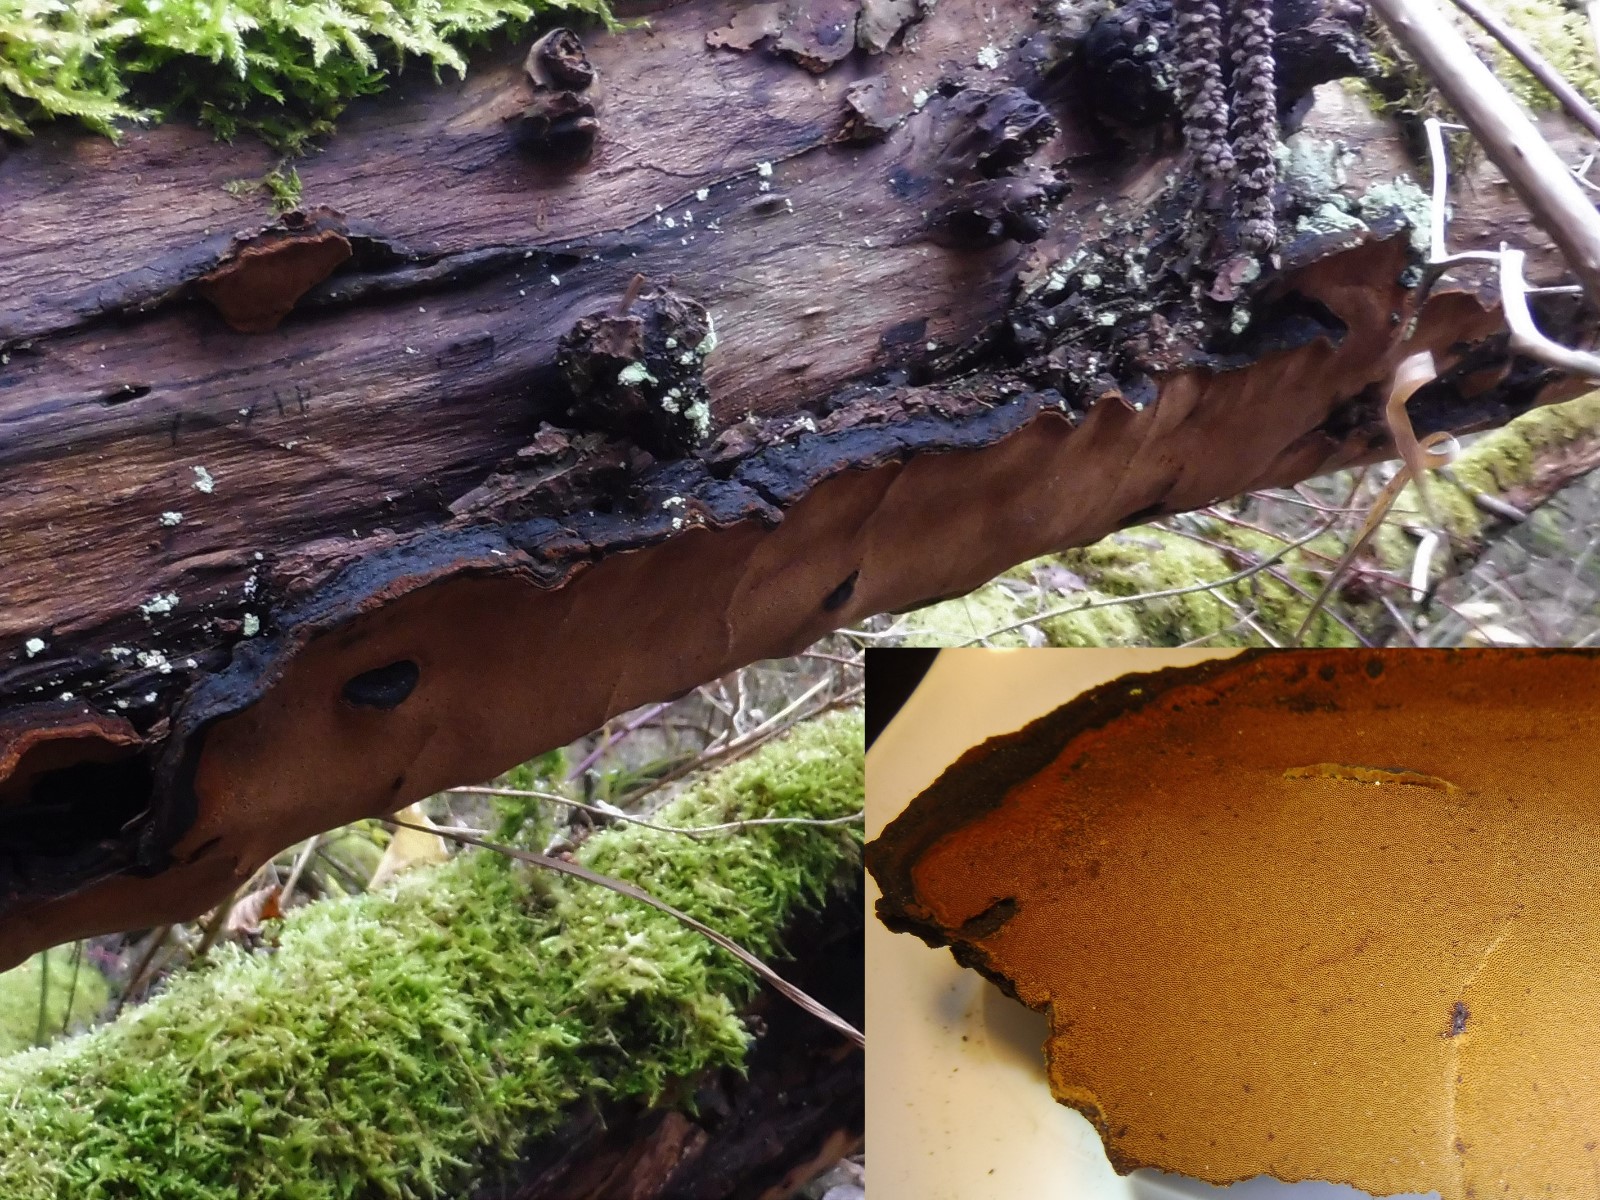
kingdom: Fungi
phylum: Basidiomycota
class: Agaricomycetes
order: Hymenochaetales
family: Hymenochaetaceae
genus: Phellinopsis
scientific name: Phellinopsis conchata
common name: pile-ildporesvamp
